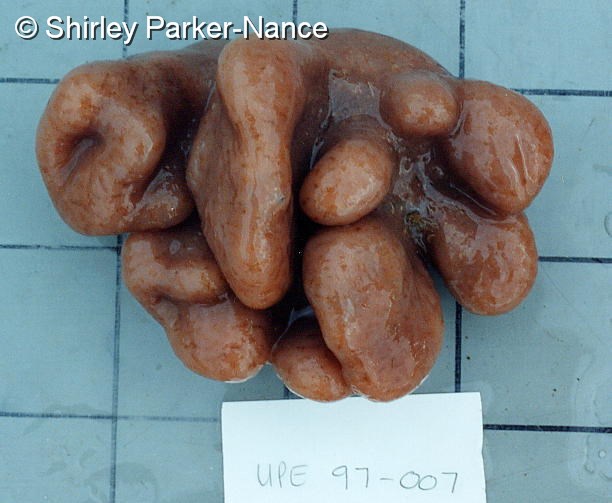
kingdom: Animalia
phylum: Chordata
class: Ascidiacea
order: Aplousobranchia
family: Polyclinidae
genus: Aplidium
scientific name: Aplidium
